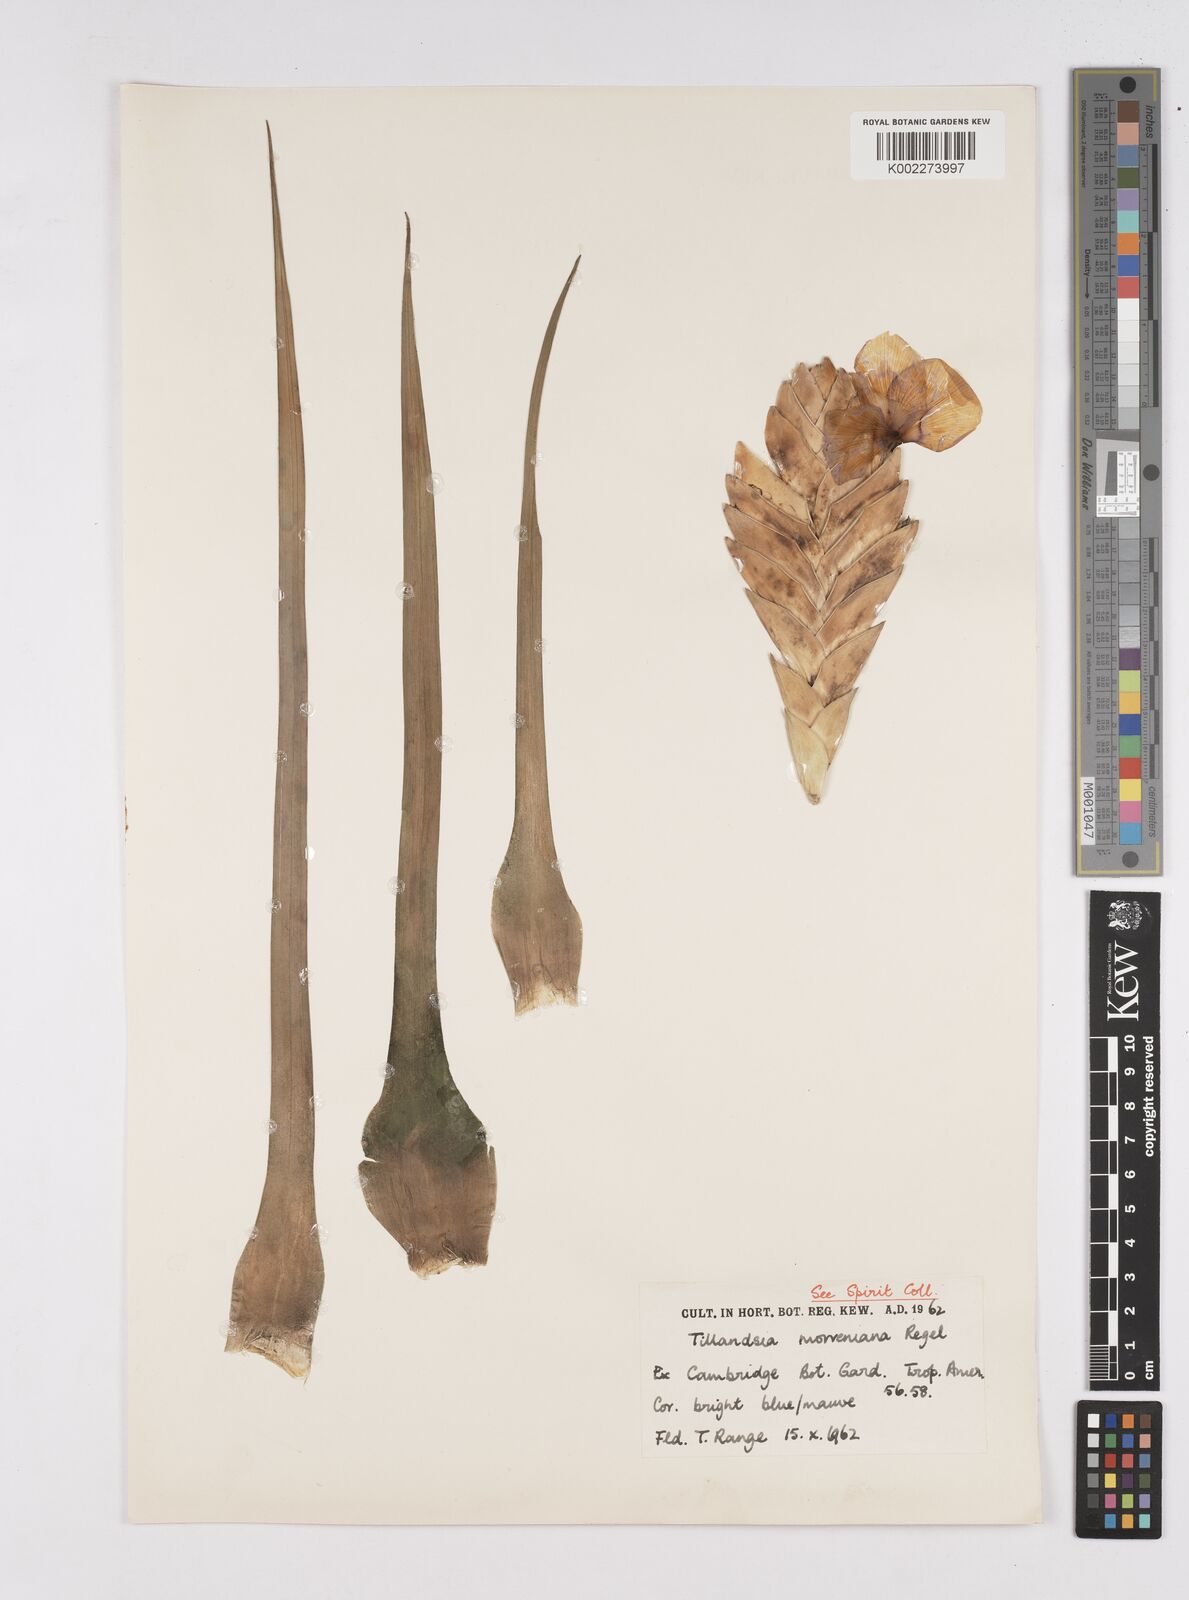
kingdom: Plantae
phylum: Tracheophyta
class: Liliopsida
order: Poales
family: Bromeliaceae
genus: Tillandsia
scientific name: Tillandsia
